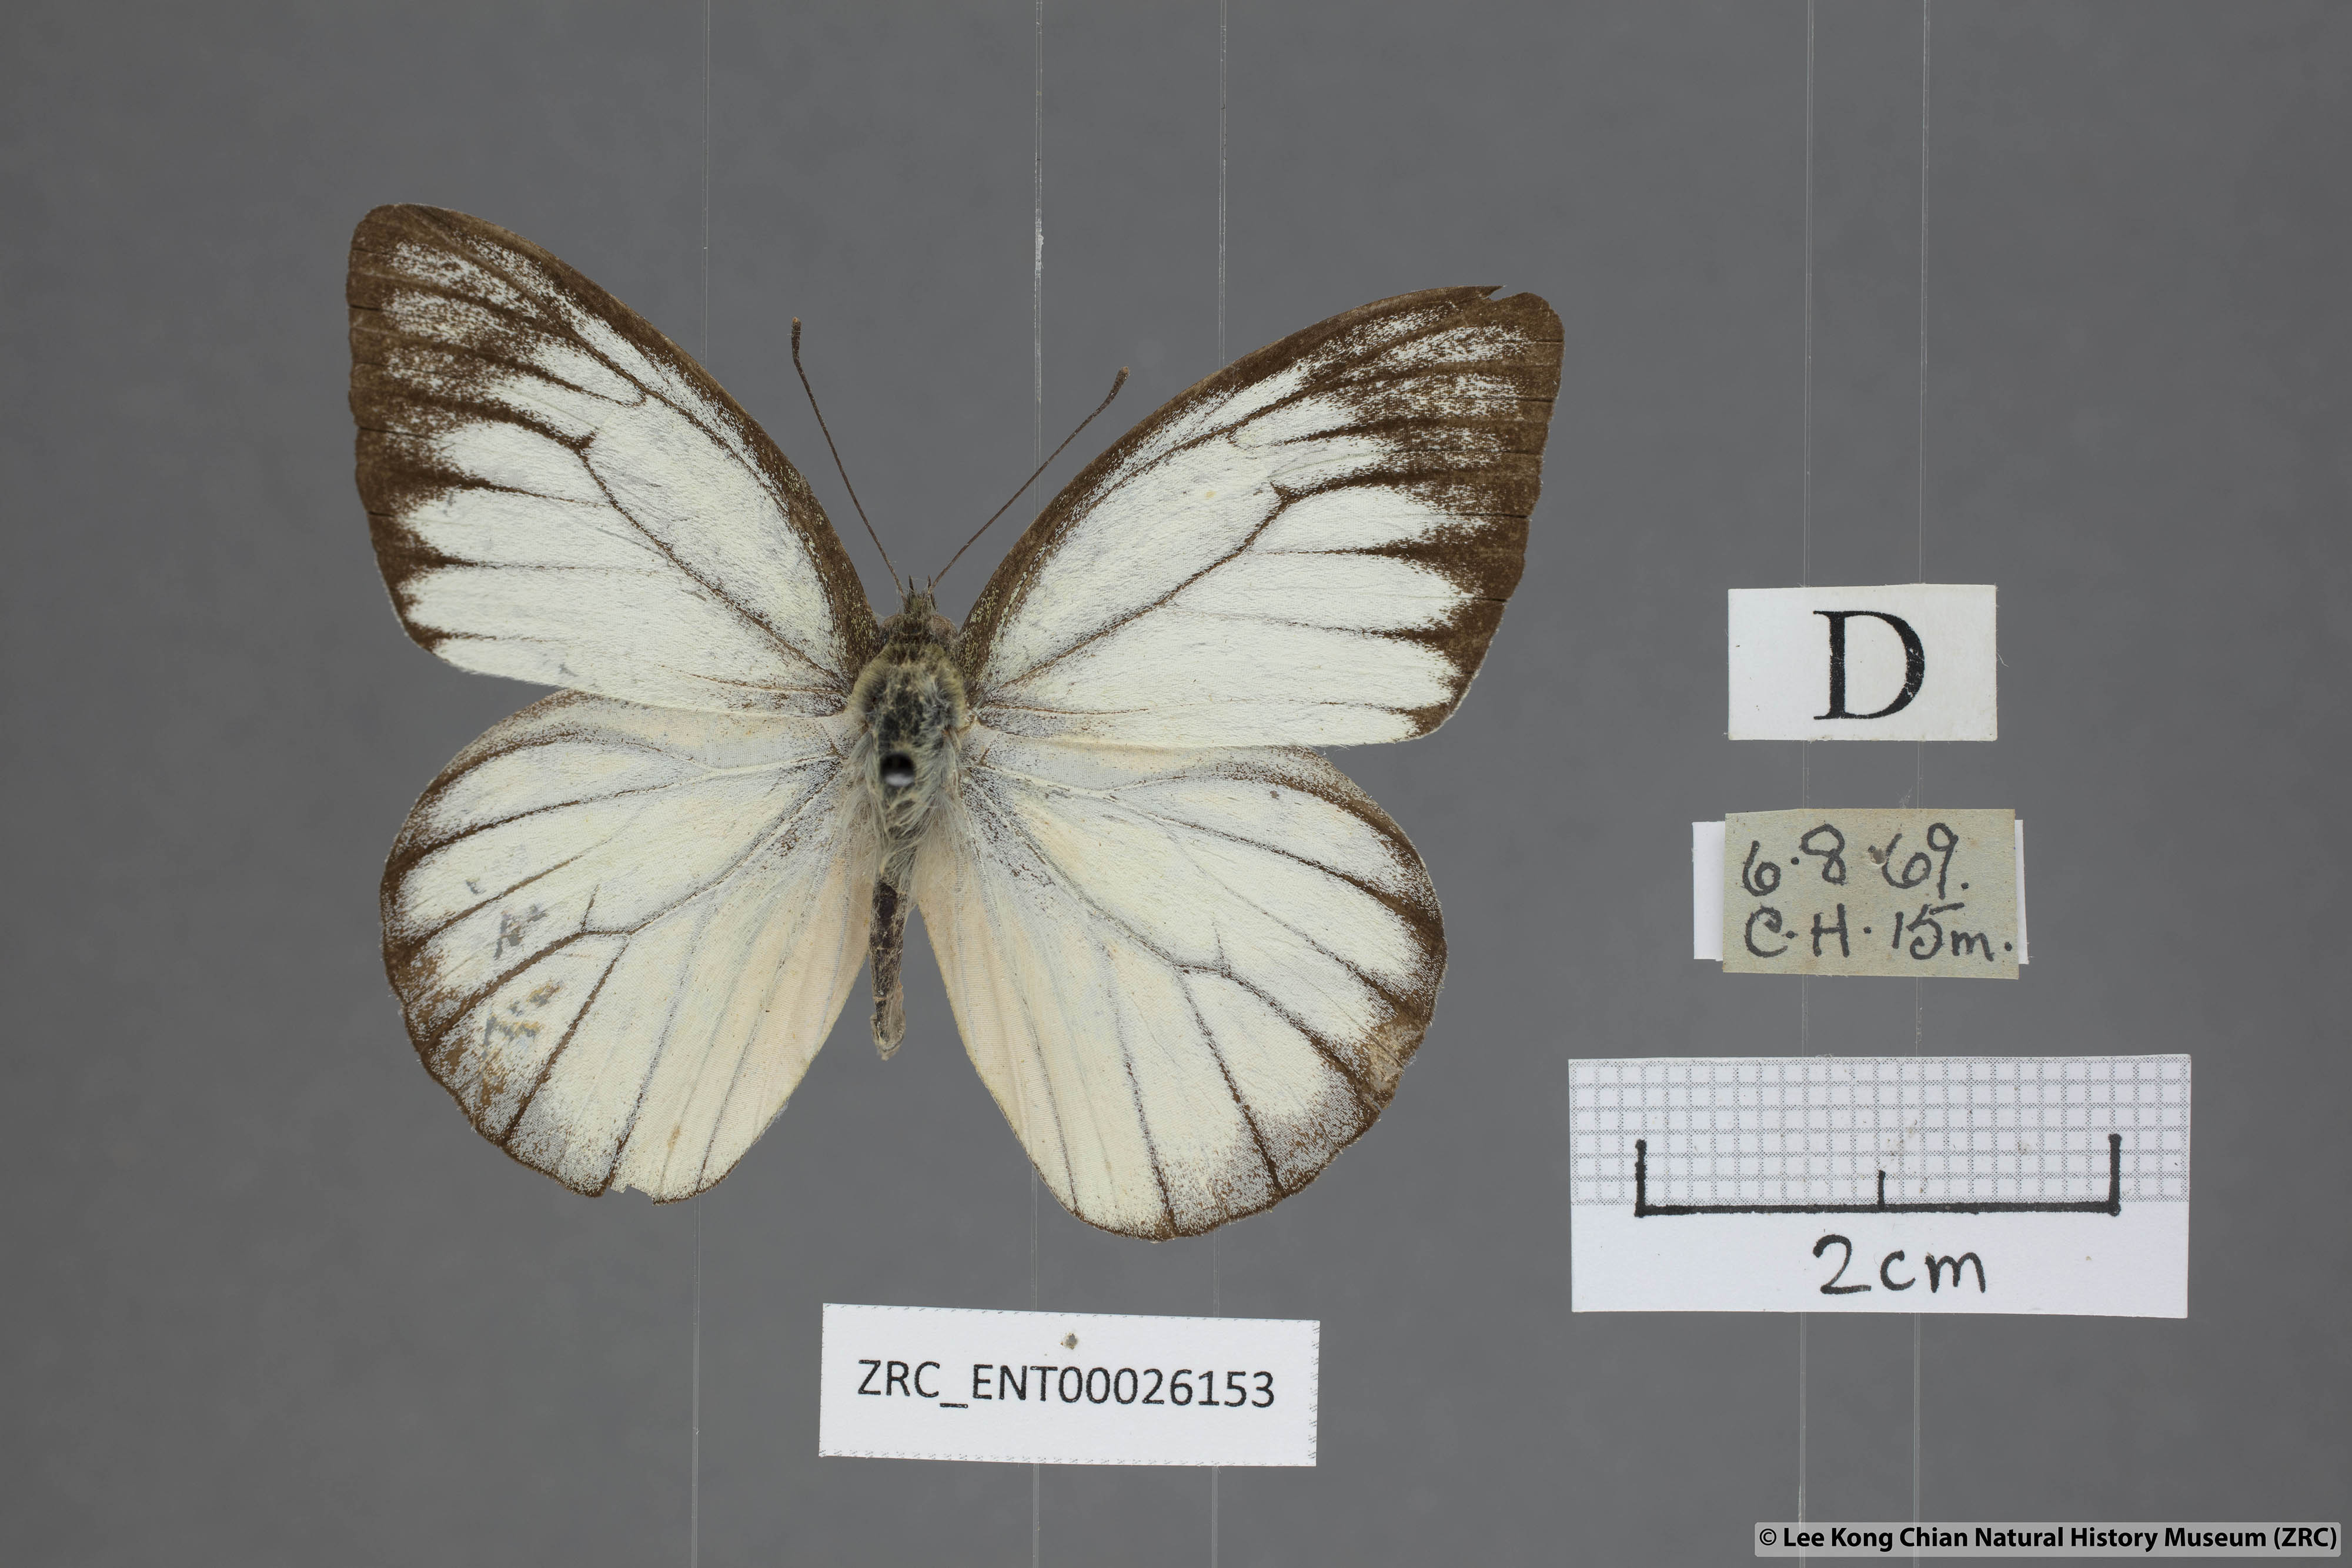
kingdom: Animalia
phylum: Arthropoda
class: Insecta
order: Lepidoptera
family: Pieridae
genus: Cepora
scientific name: Cepora nadina
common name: Lesser gull
